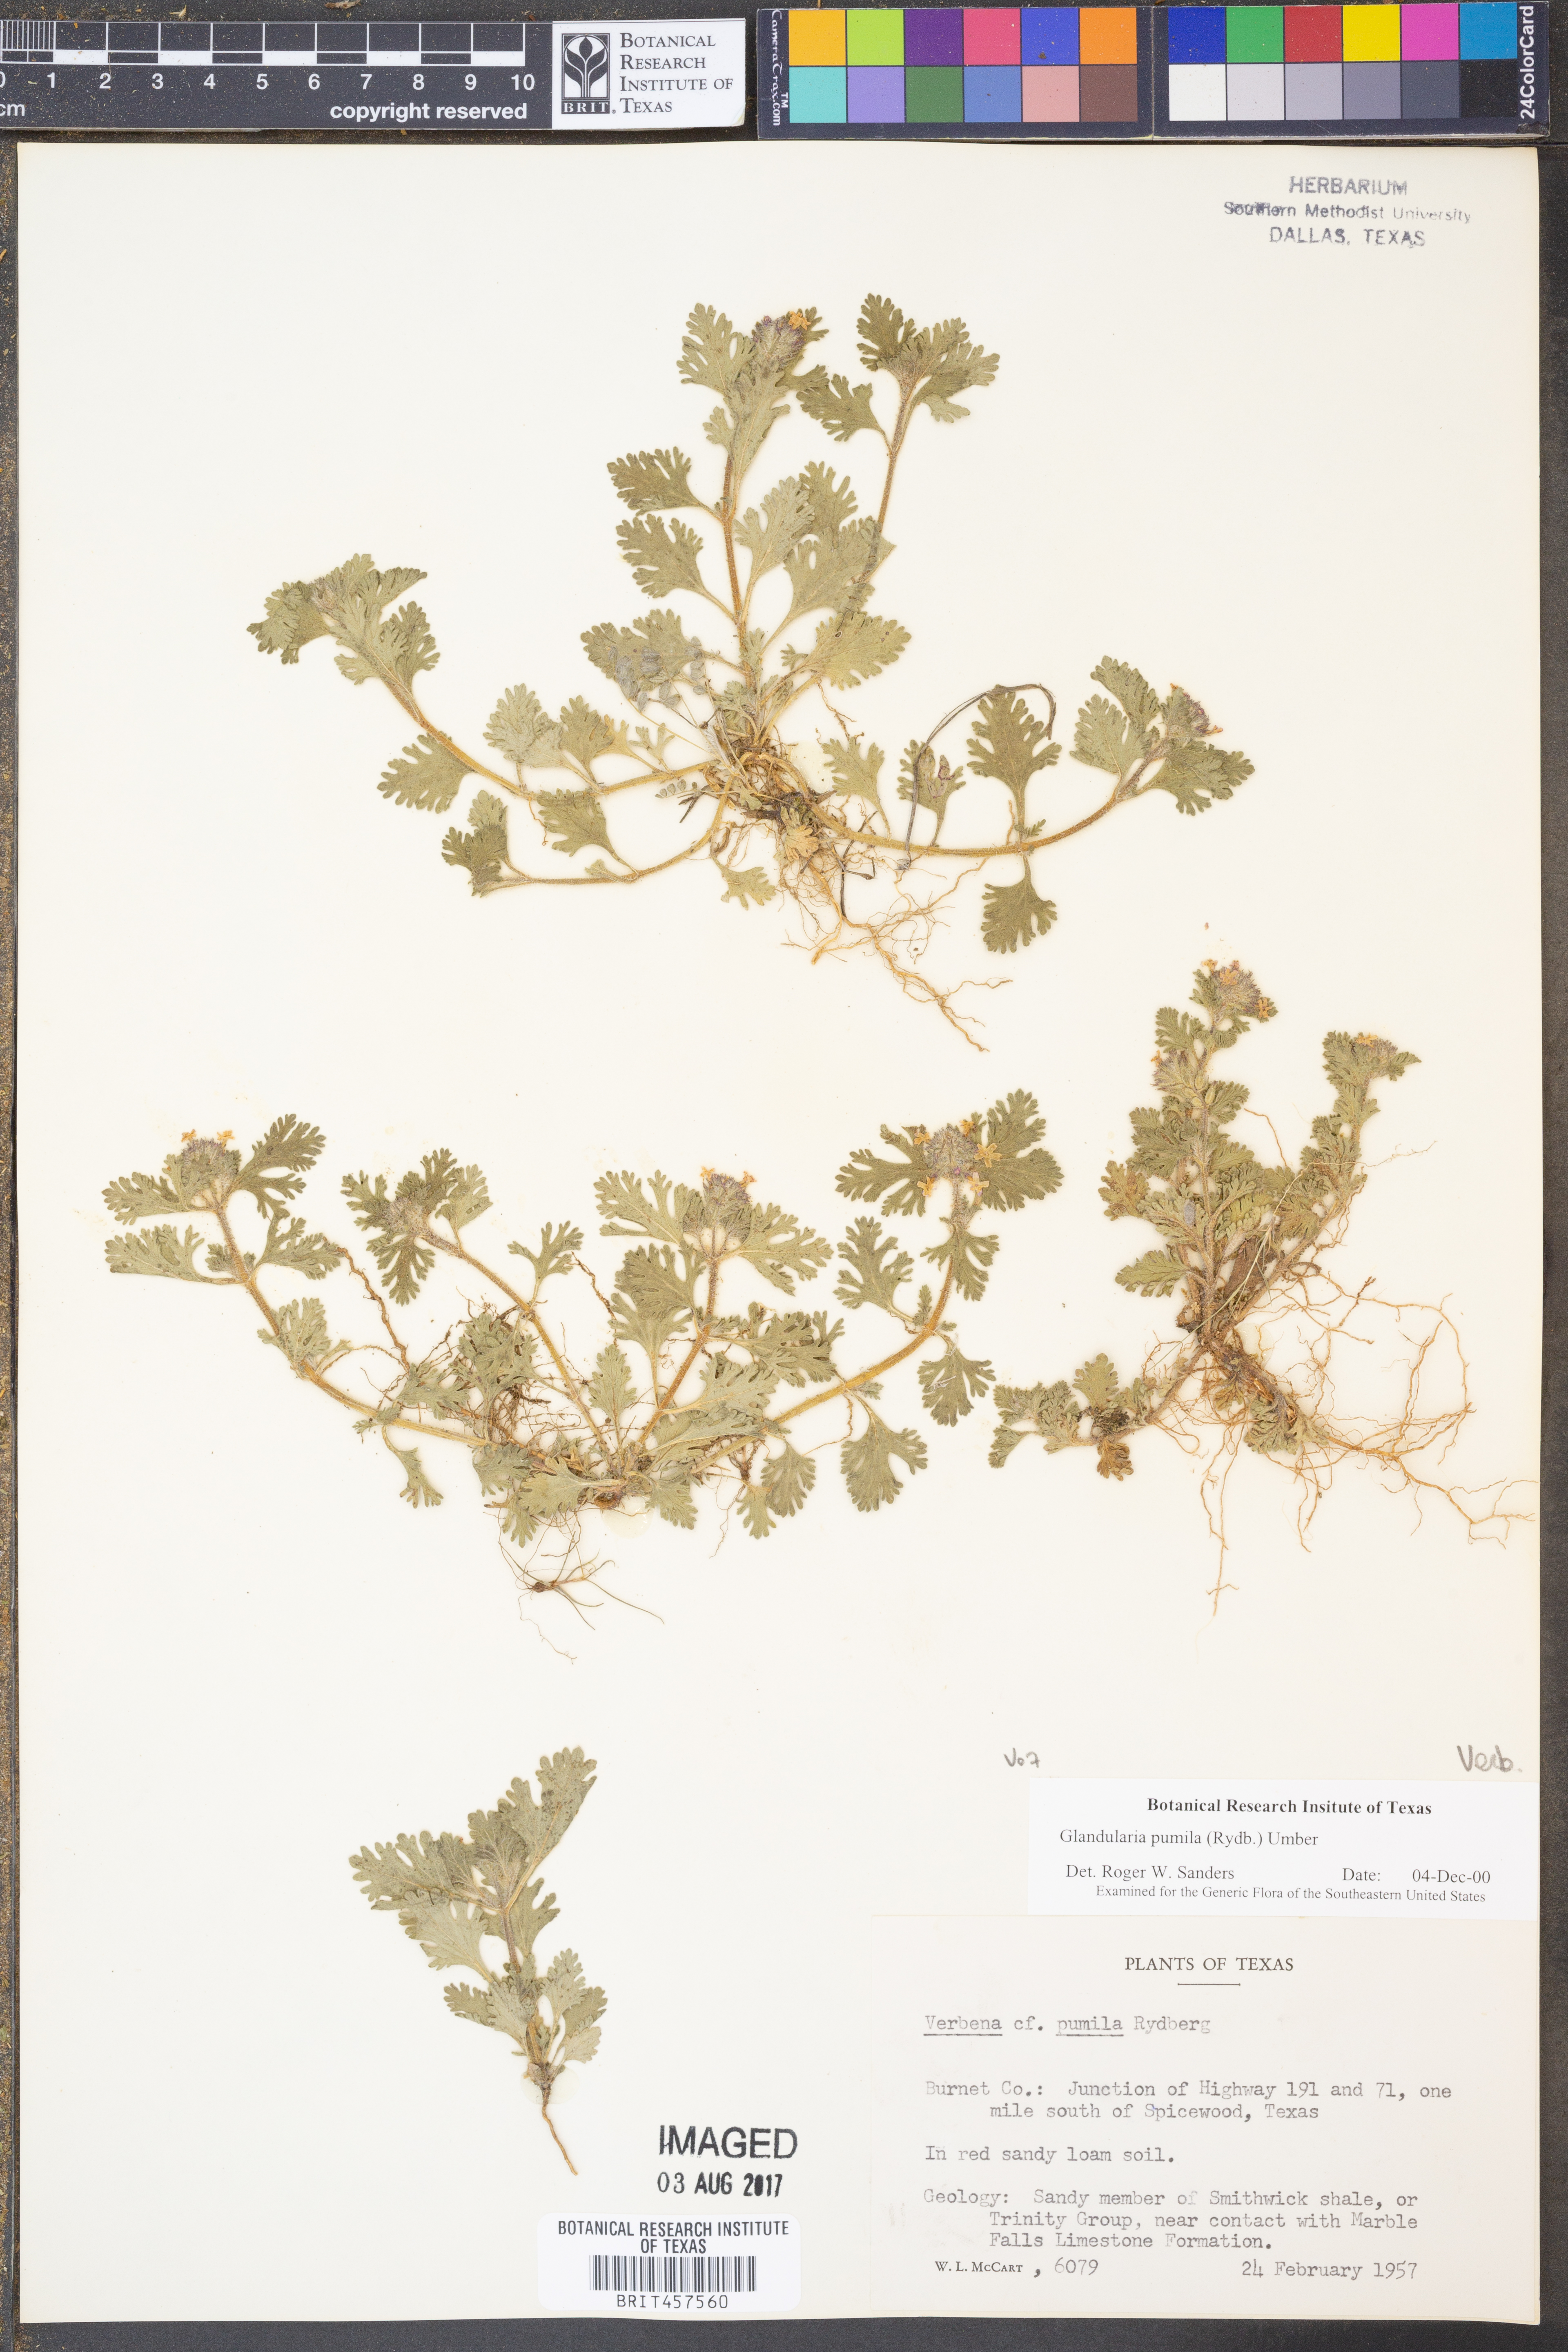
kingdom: Plantae
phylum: Tracheophyta
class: Magnoliopsida
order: Lamiales
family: Verbenaceae
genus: Verbena
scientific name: Verbena pumila
